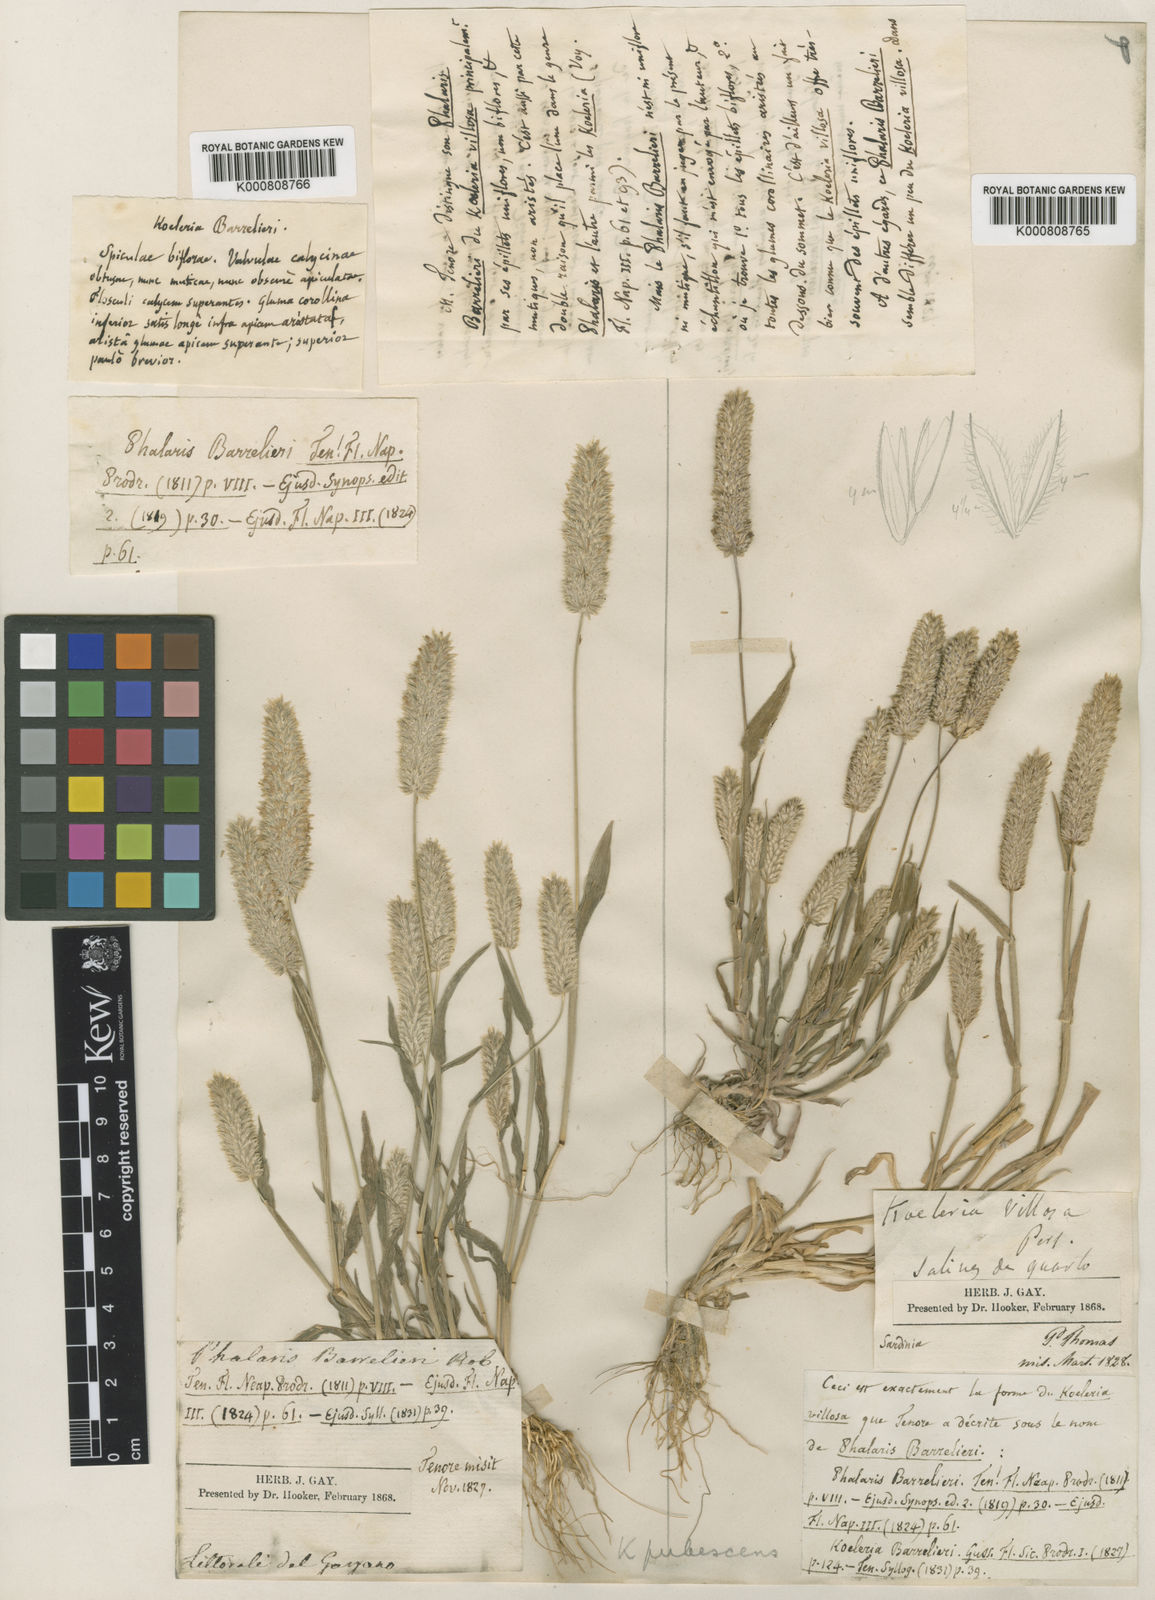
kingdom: Plantae
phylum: Tracheophyta
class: Liliopsida
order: Poales
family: Poaceae
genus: Rostraria
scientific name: Rostraria
